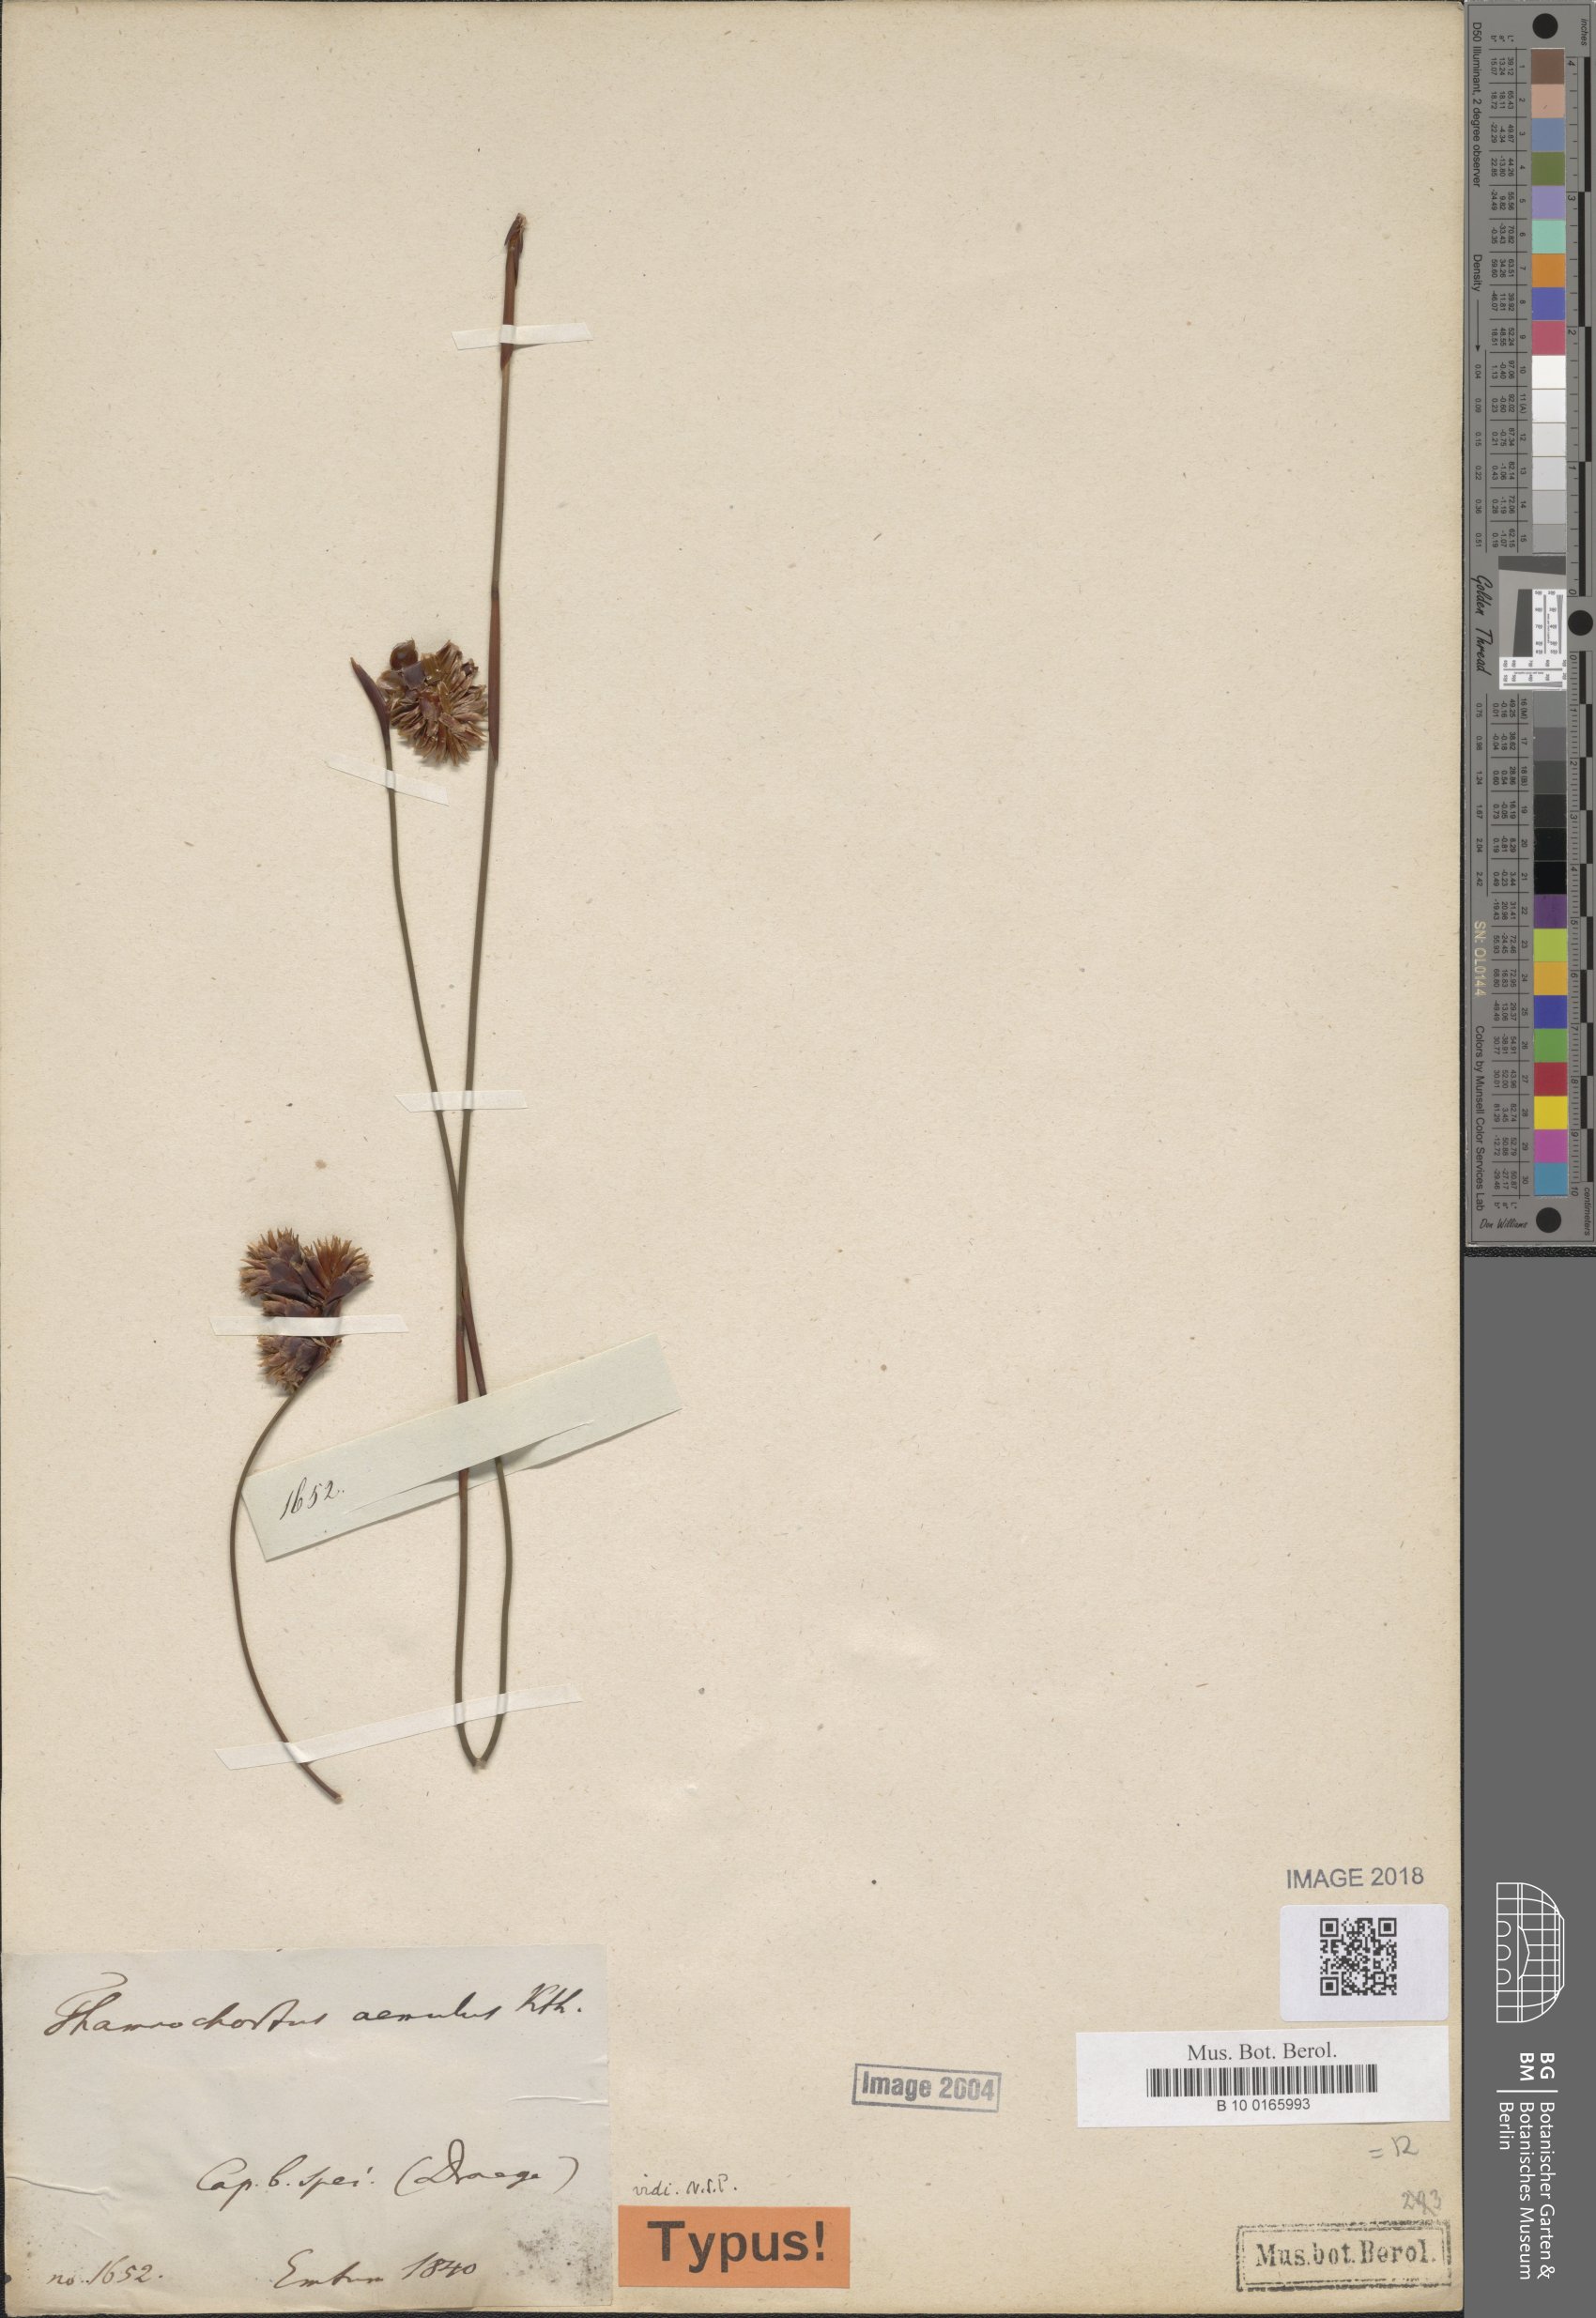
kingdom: Plantae
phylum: Tracheophyta
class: Liliopsida
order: Poales
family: Restionaceae
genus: Staberoha
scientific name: Staberoha aemula
